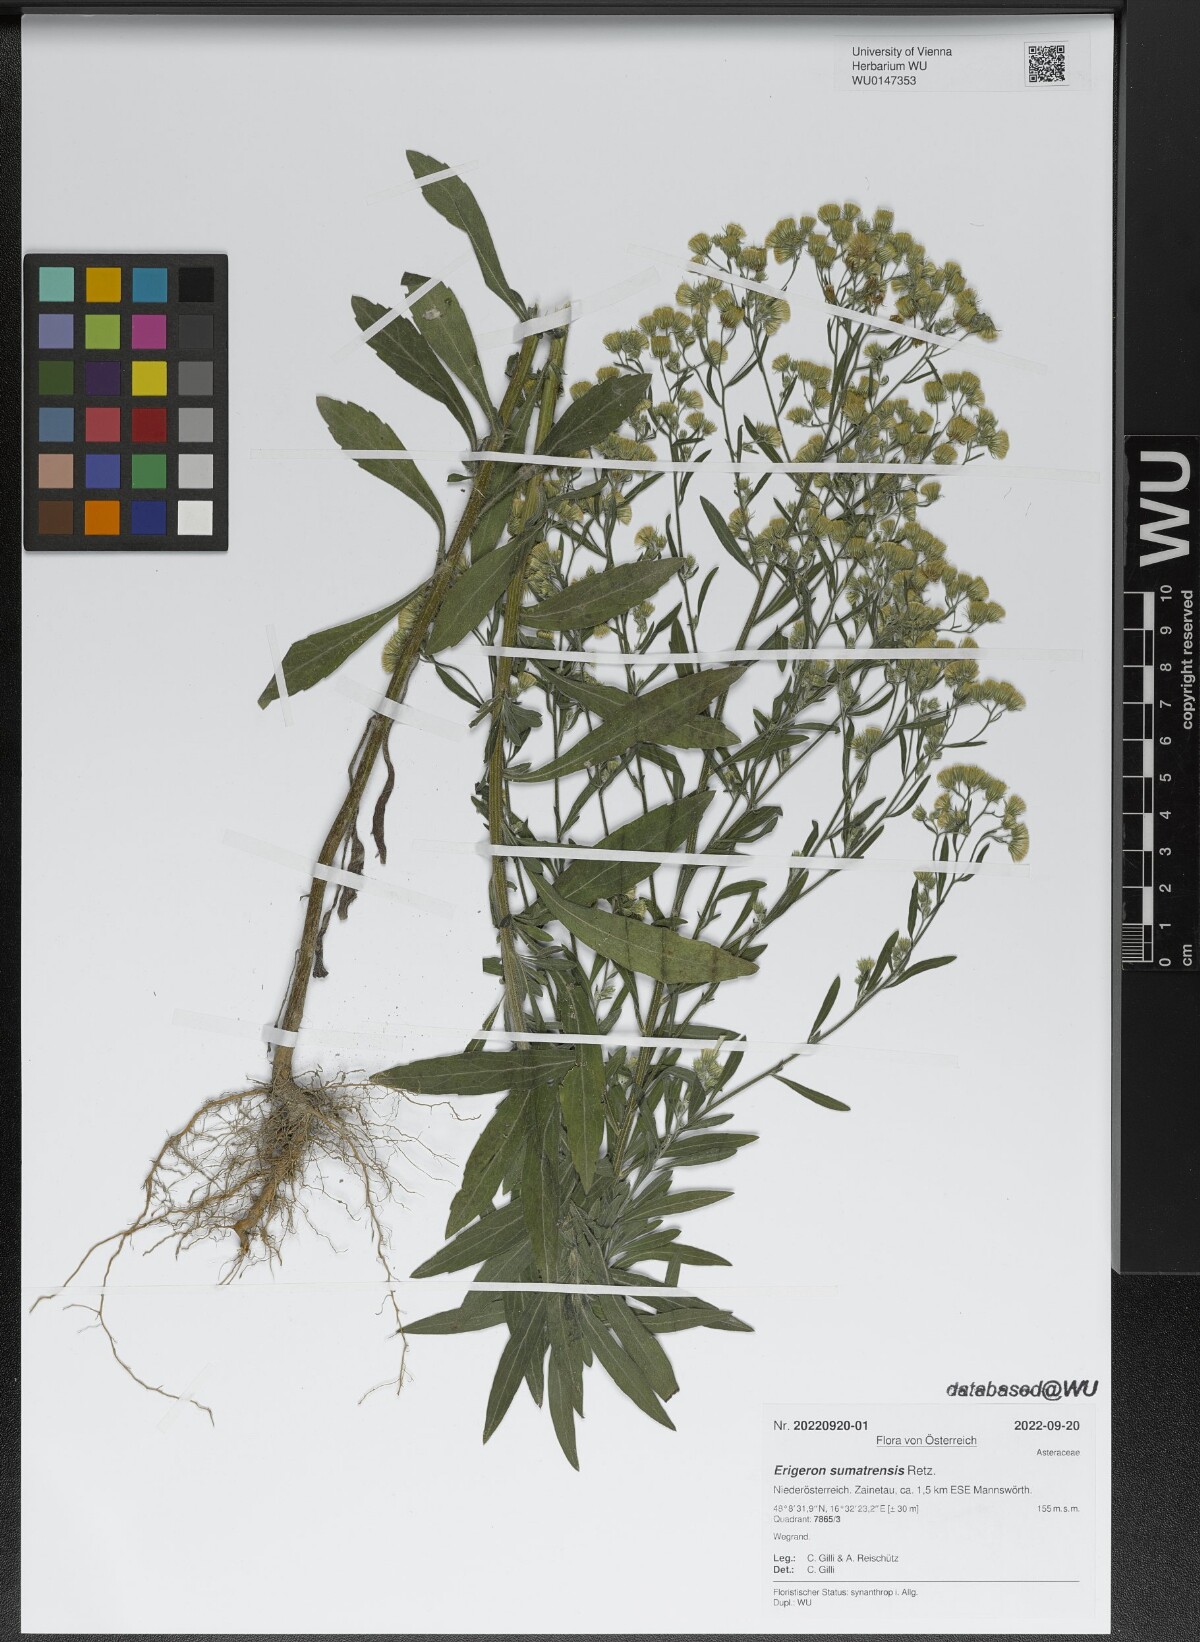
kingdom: Plantae
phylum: Tracheophyta
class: Magnoliopsida
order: Asterales
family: Asteraceae
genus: Erigeron
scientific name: Erigeron sumatrensis
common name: Daisy
